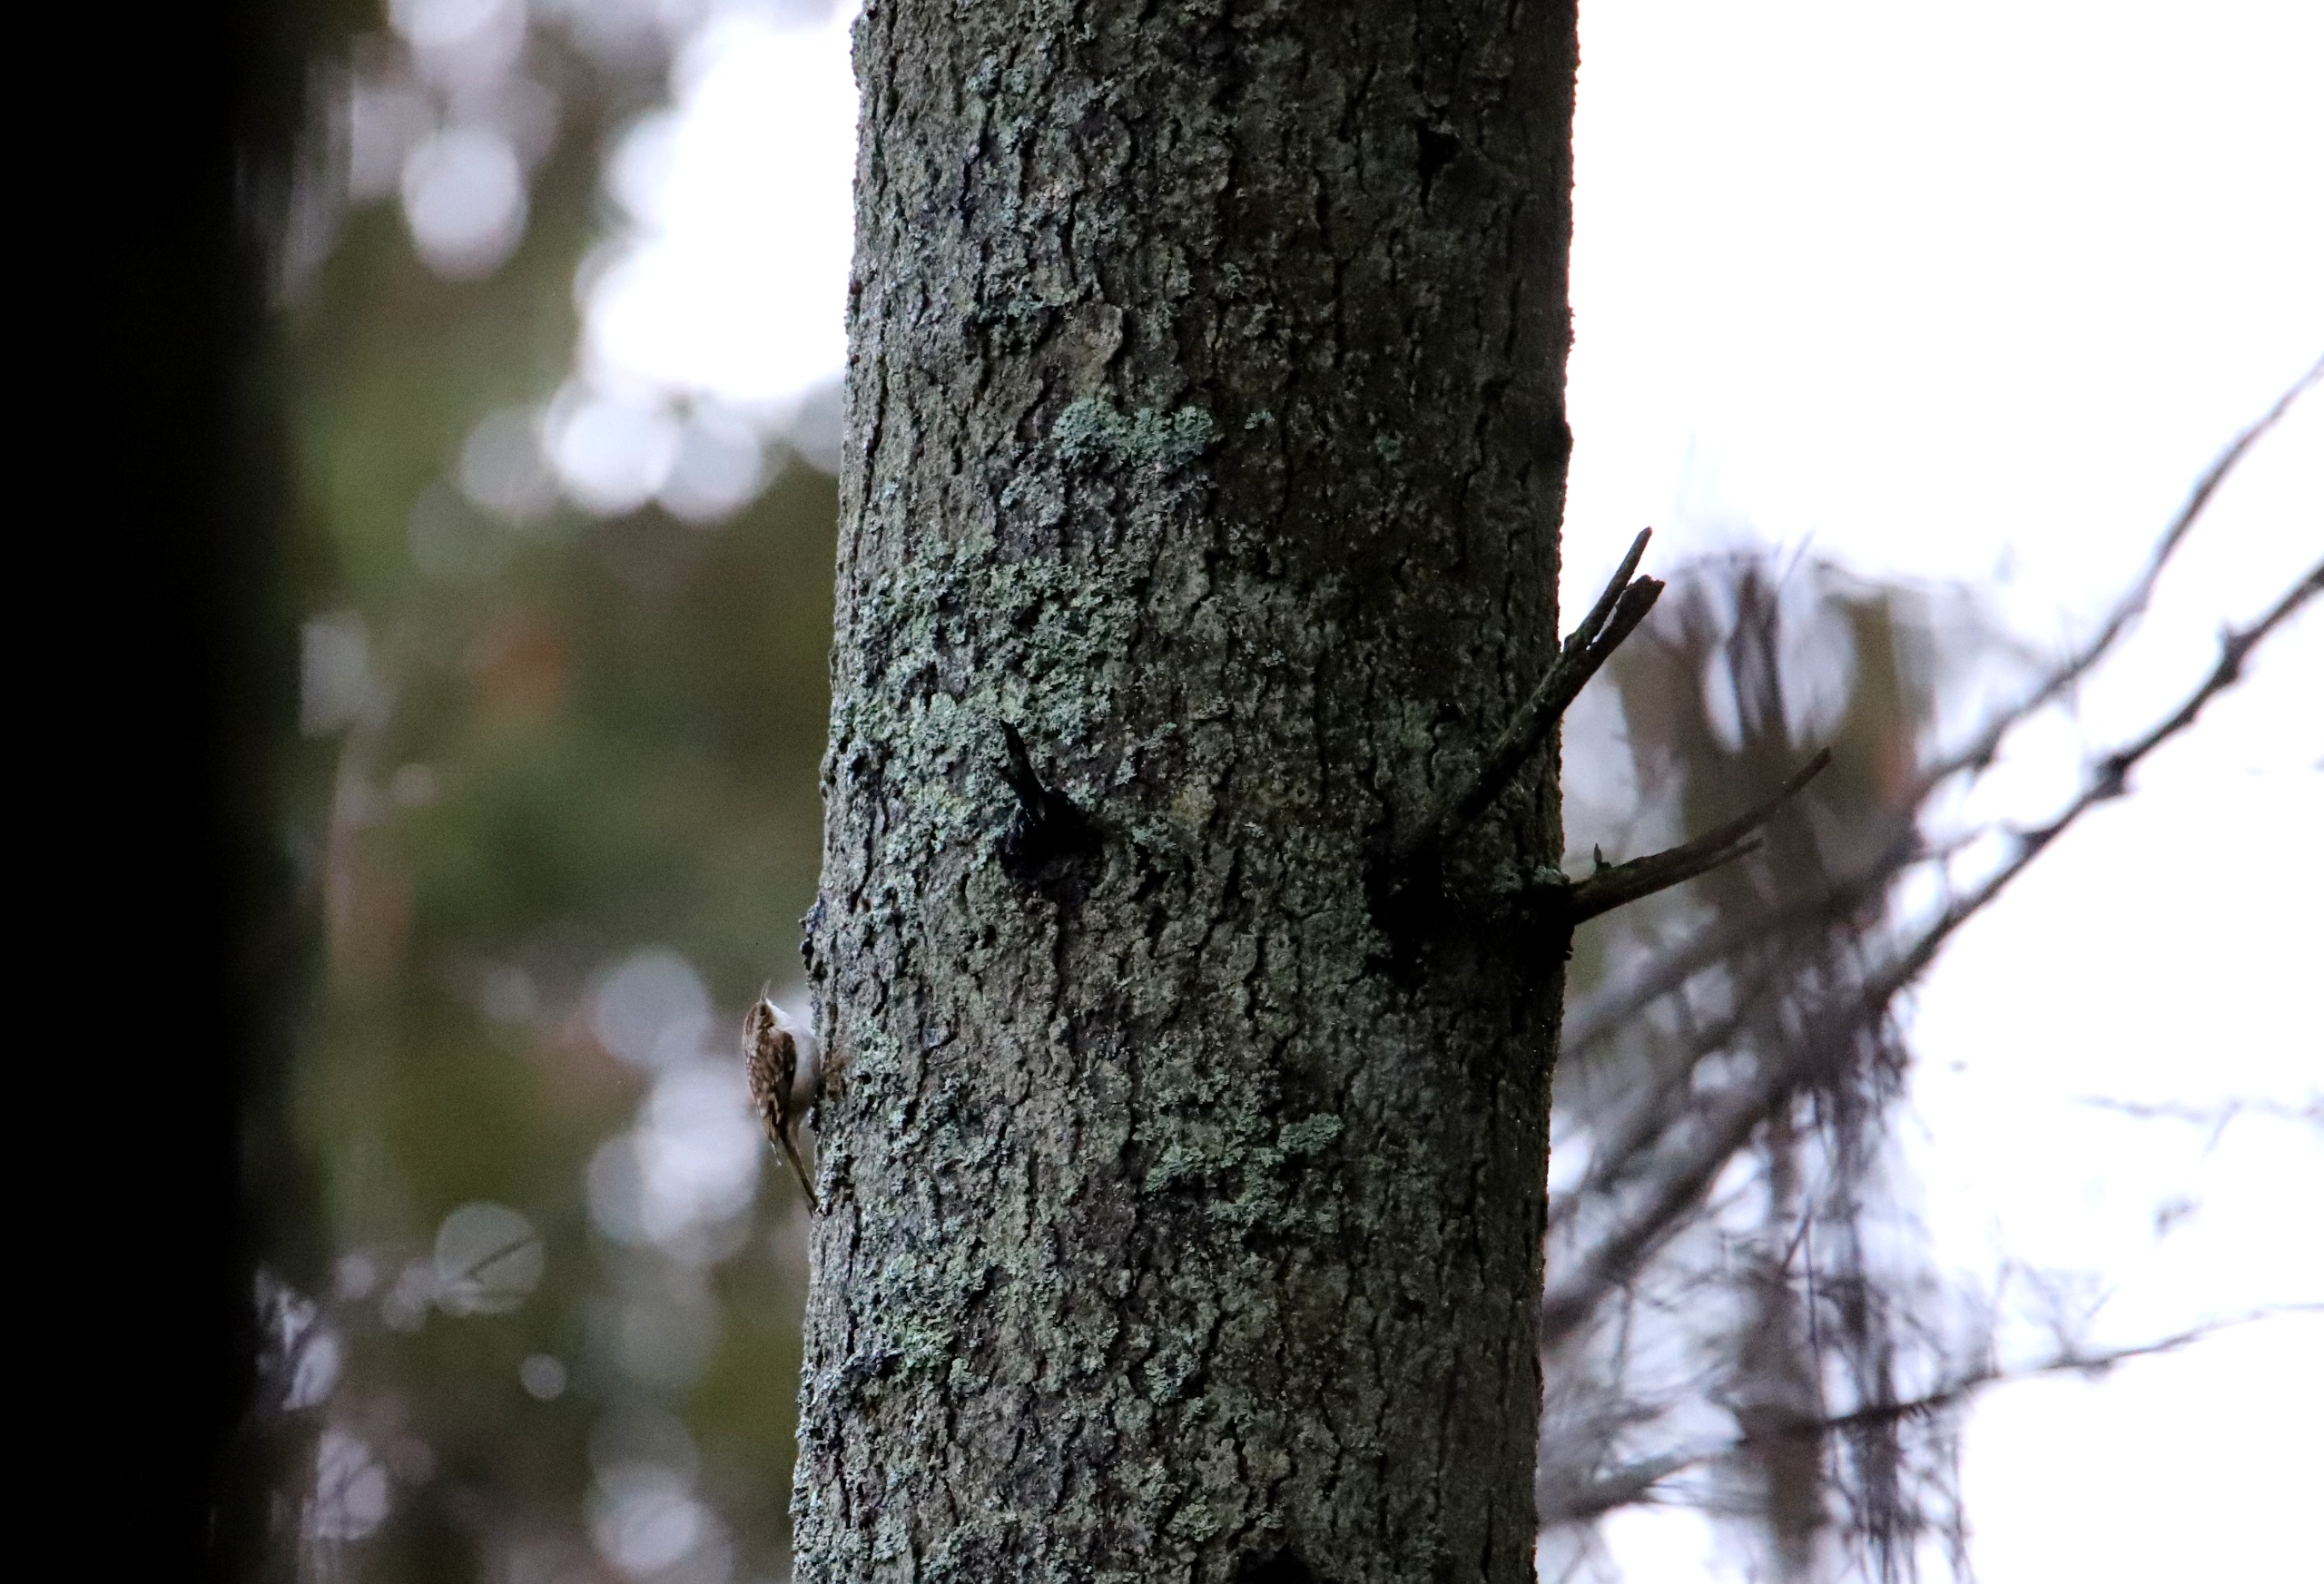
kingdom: Animalia
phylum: Chordata
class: Aves
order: Passeriformes
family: Certhiidae
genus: Certhia
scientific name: Certhia familiaris
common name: Træløber
